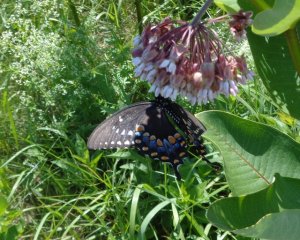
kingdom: Animalia
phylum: Arthropoda
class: Insecta
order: Lepidoptera
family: Papilionidae
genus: Pterourus
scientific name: Pterourus troilus
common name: Spicebush Swallowtail
